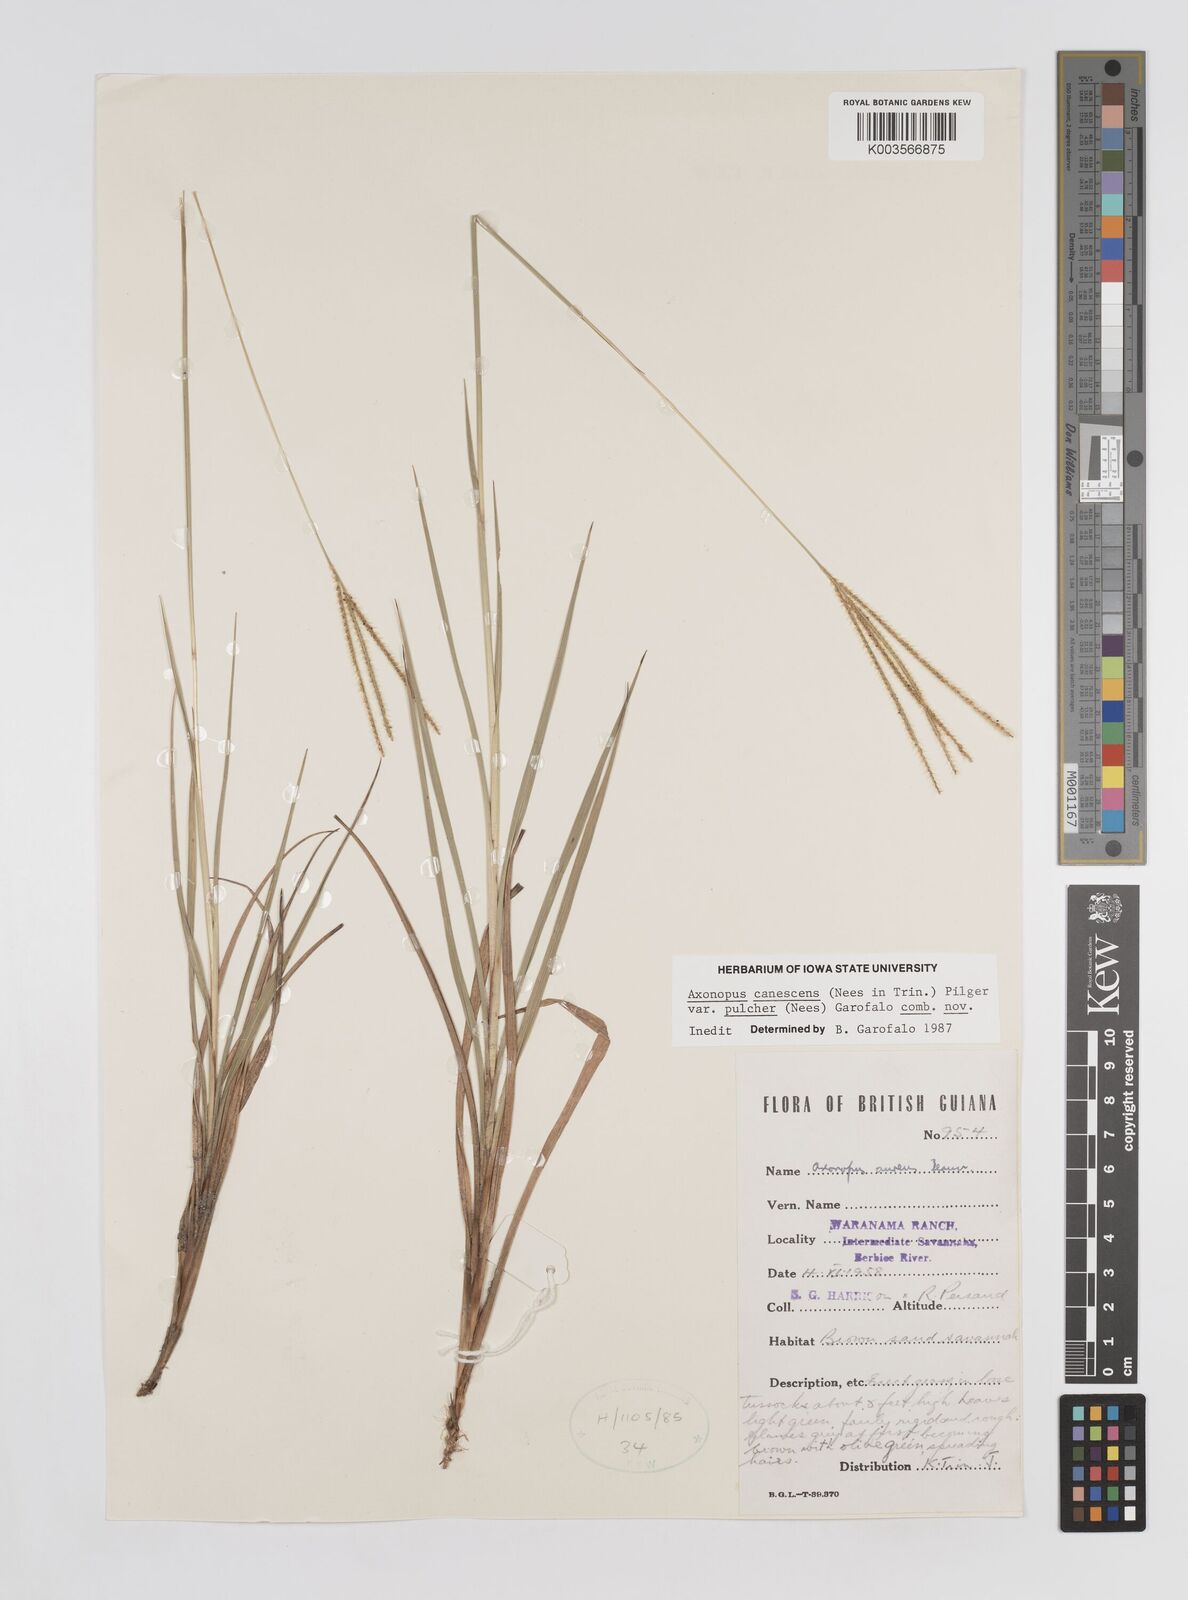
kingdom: Plantae
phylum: Tracheophyta
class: Liliopsida
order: Poales
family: Poaceae
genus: Axonopus
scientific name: Axonopus aureus
